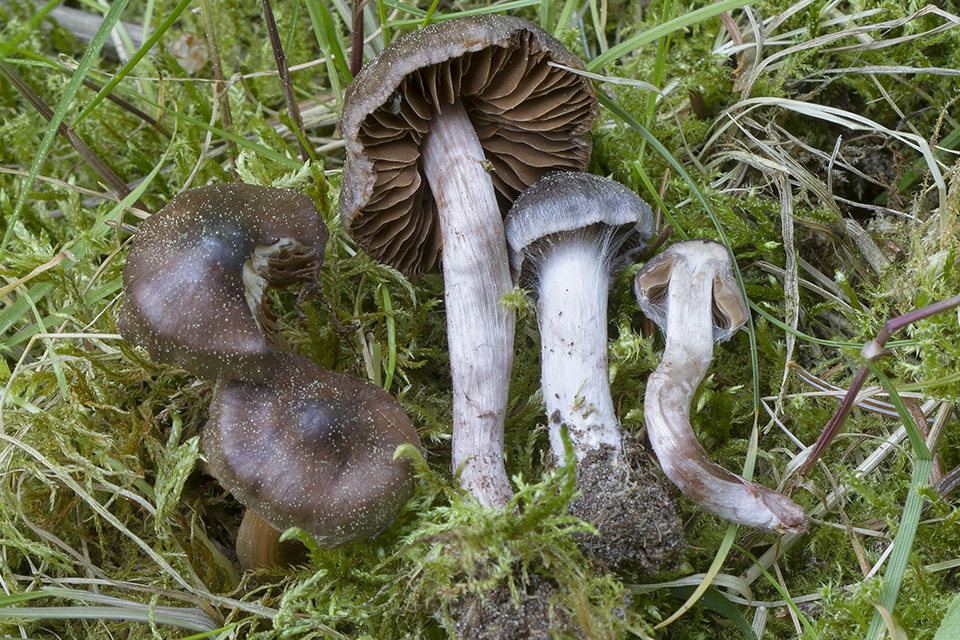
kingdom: Fungi
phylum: Basidiomycota
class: Agaricomycetes
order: Agaricales
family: Cortinariaceae
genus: Cortinarius
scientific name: Cortinarius vernus
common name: sommer-slørhat
